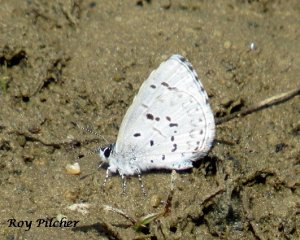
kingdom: Animalia
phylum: Arthropoda
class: Insecta
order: Lepidoptera
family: Lycaenidae
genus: Celastrina
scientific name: Celastrina serotina
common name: Cherry Gall Azure
